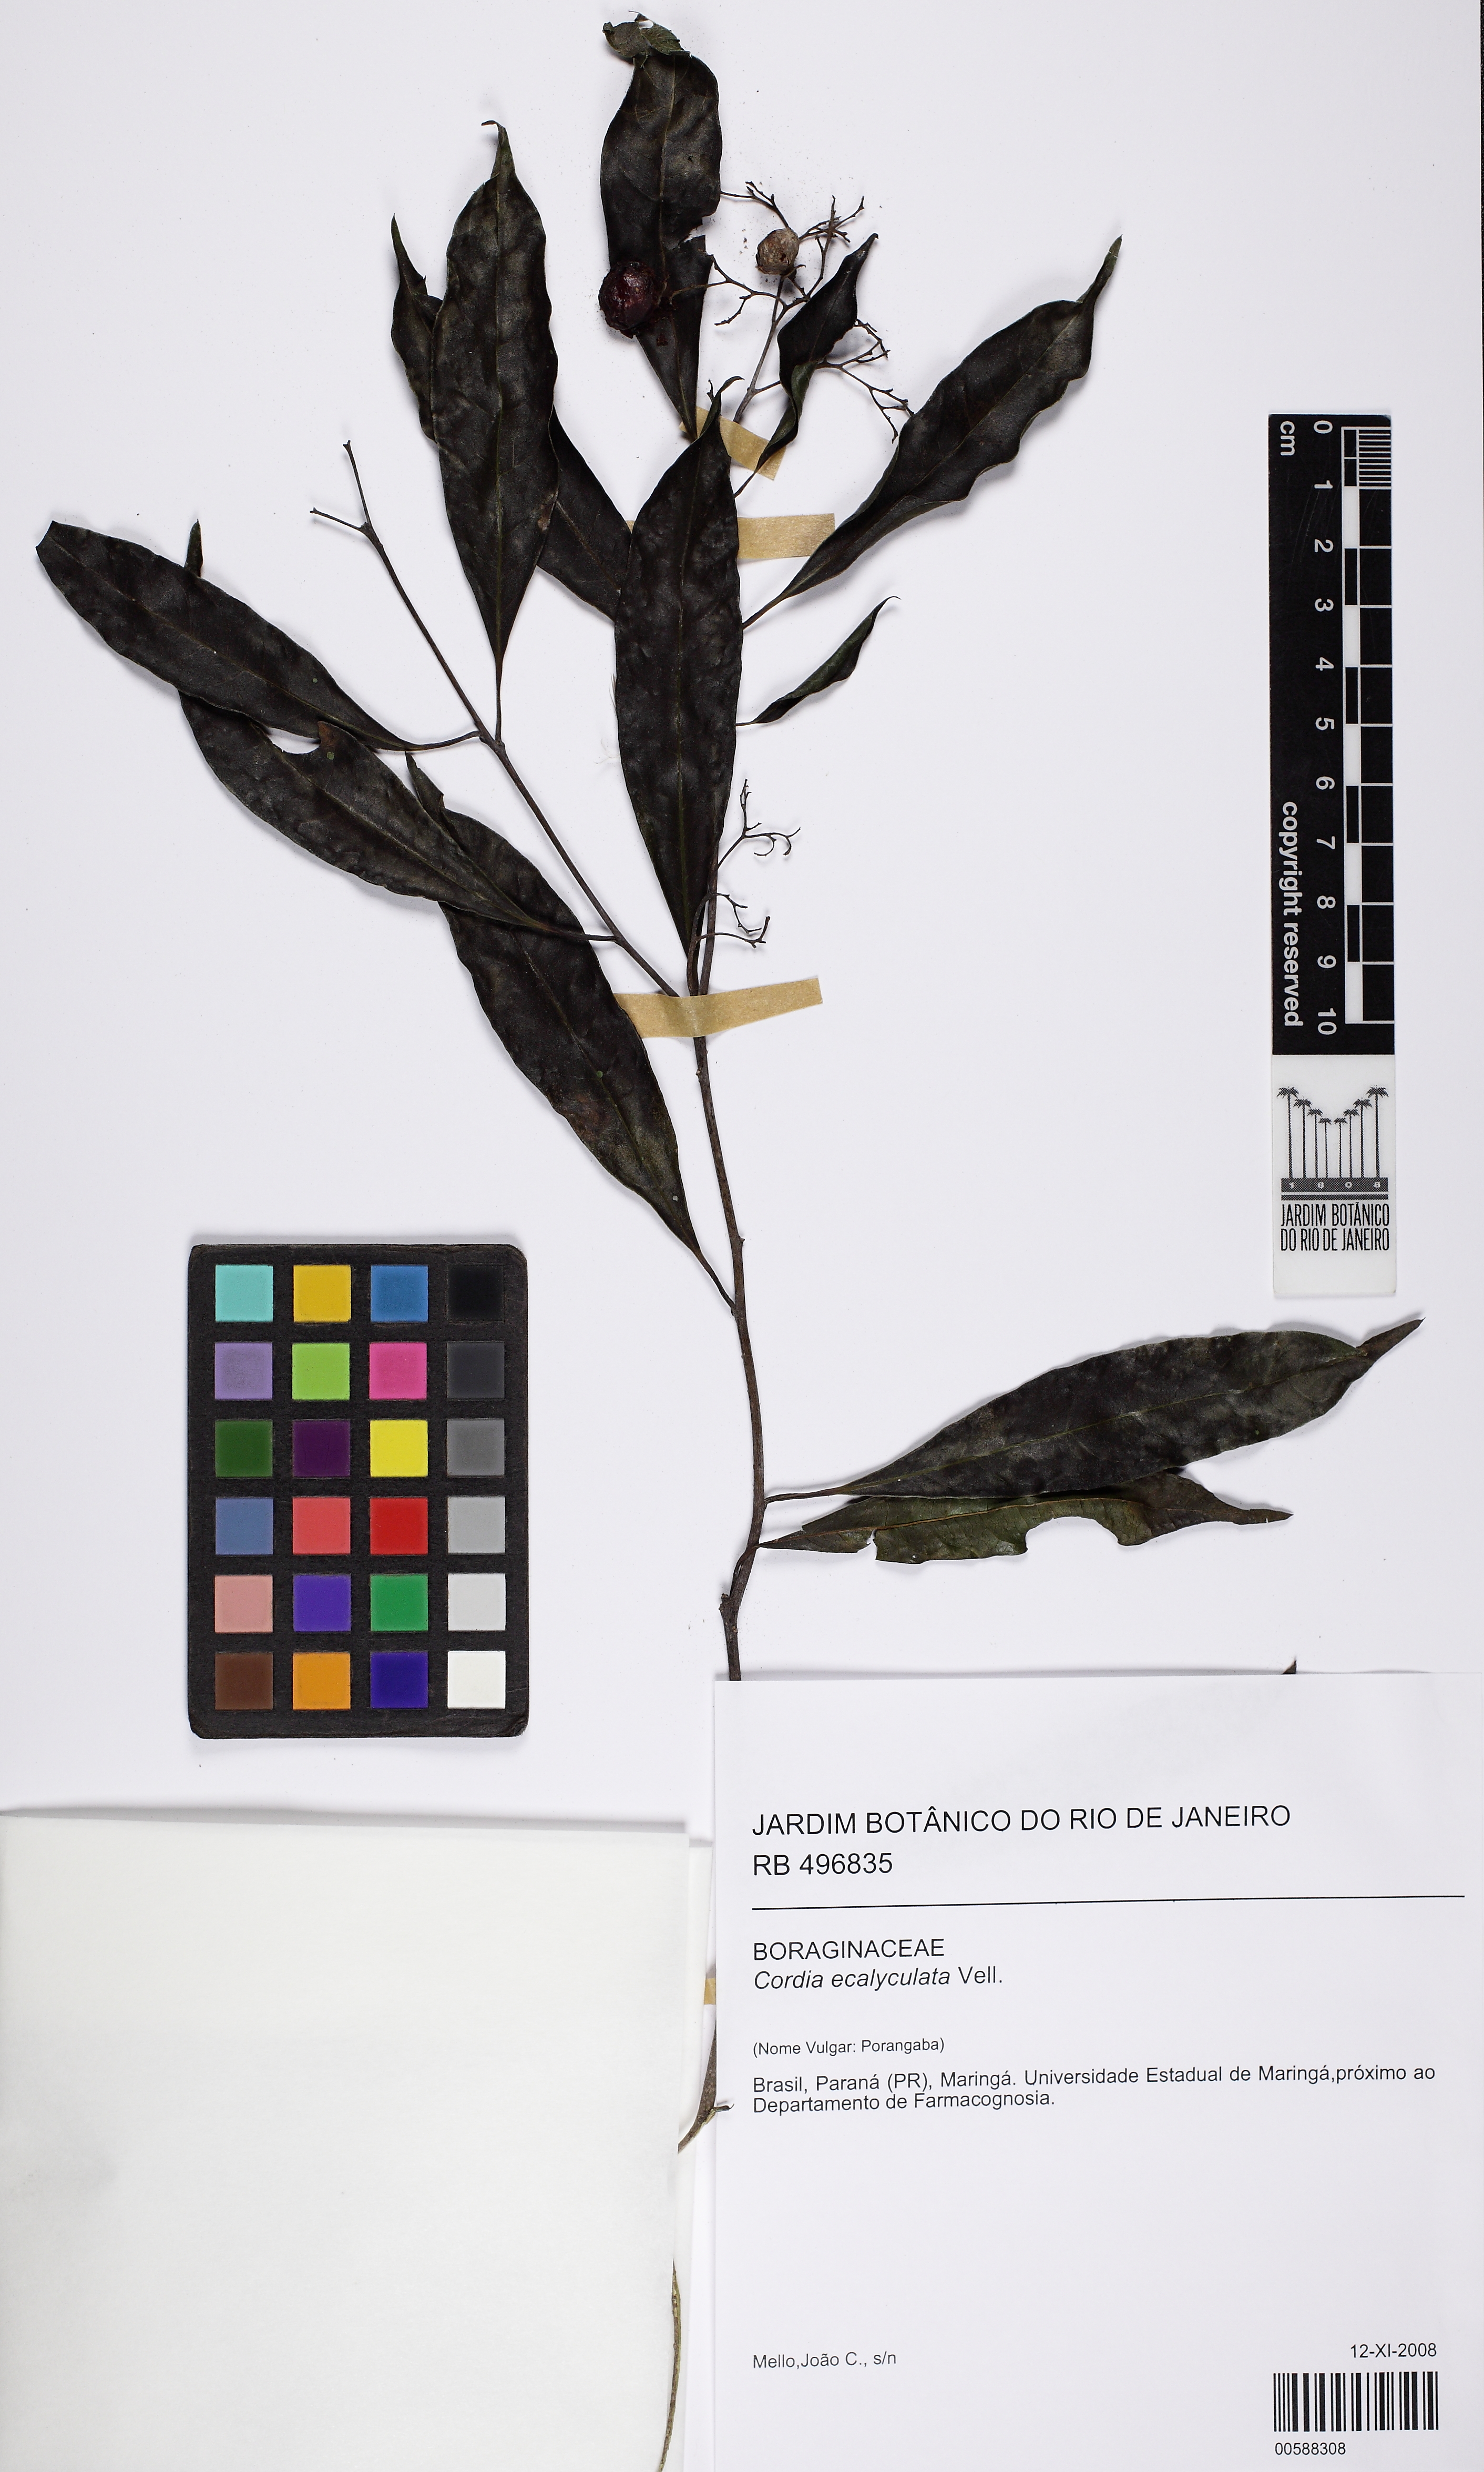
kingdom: Plantae
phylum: Tracheophyta
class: Magnoliopsida
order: Boraginales
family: Cordiaceae
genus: Cordia
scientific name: Cordia ecalyculata
